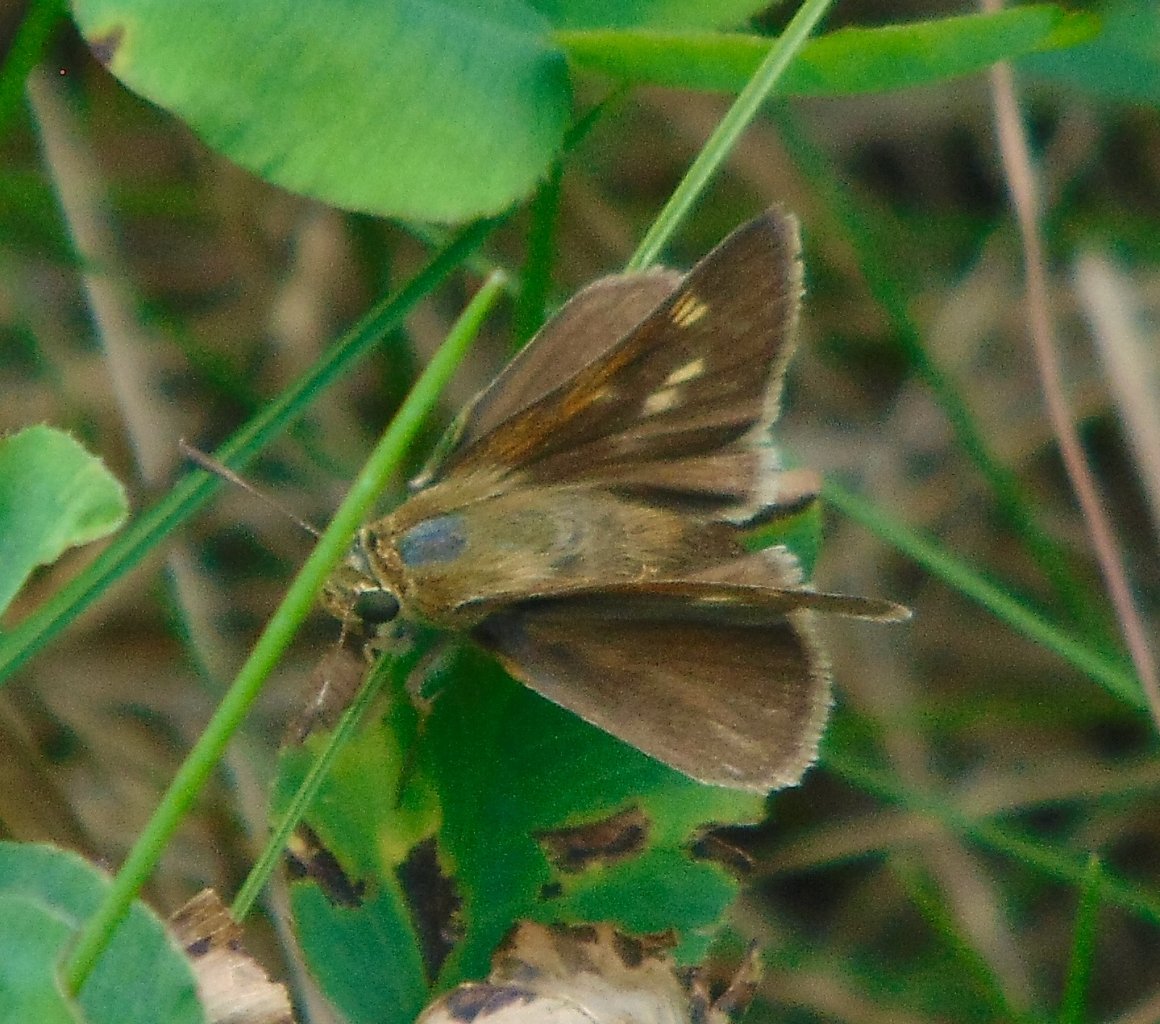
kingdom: Animalia
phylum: Arthropoda
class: Insecta
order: Lepidoptera
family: Hesperiidae
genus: Polites
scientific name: Polites egeremet
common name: Northern Broken-Dash
